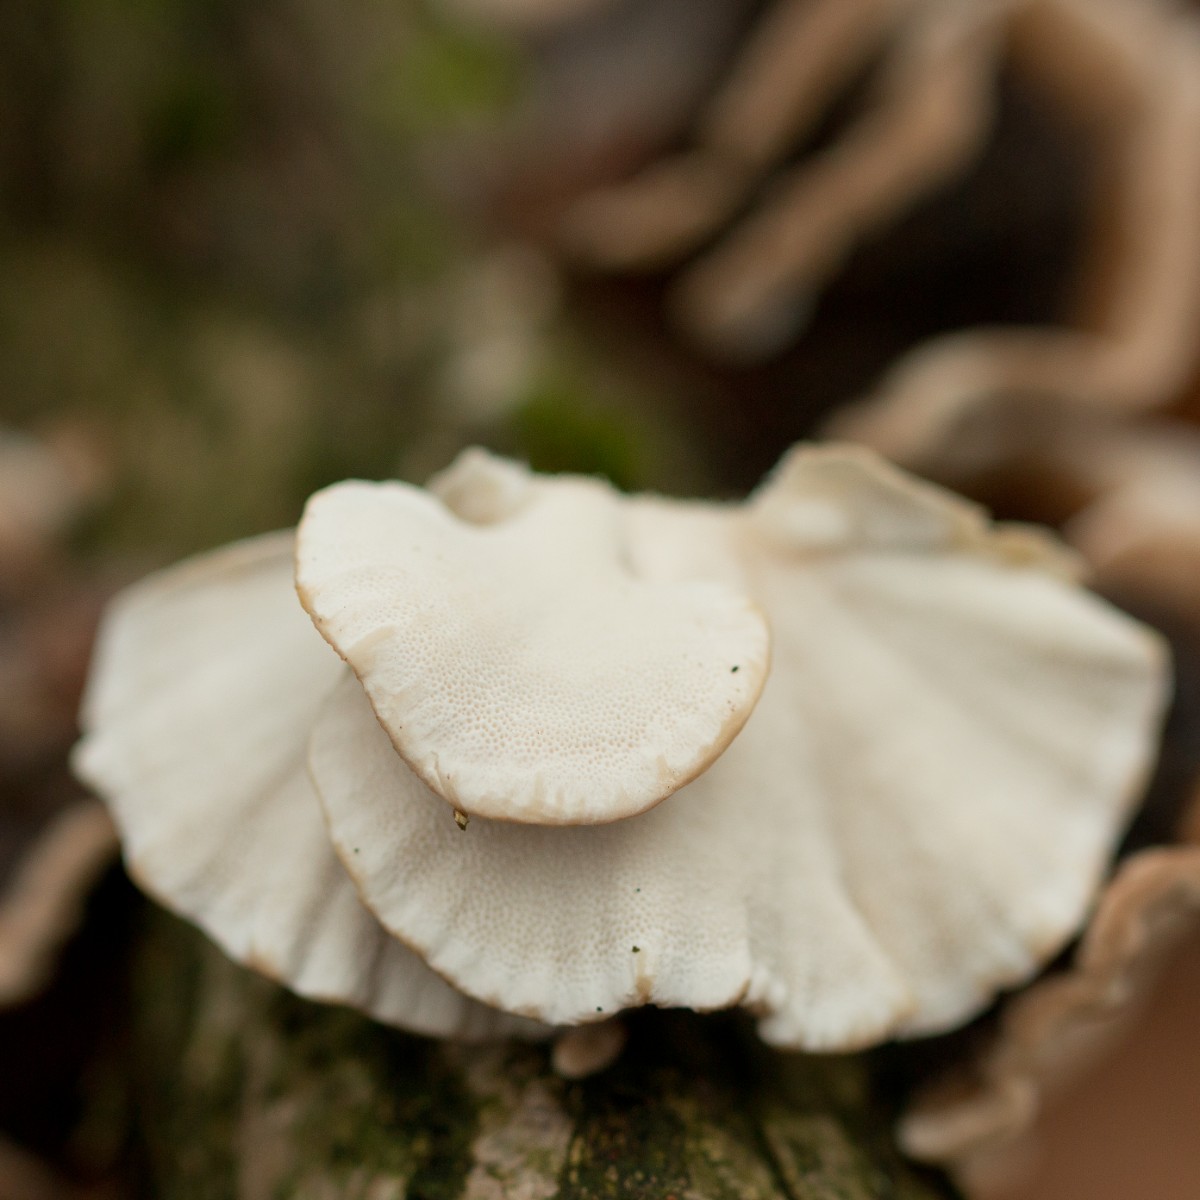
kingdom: Fungi
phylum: Basidiomycota
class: Agaricomycetes
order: Polyporales
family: Polyporaceae
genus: Trametes
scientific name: Trametes versicolor
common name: broget læderporesvamp
